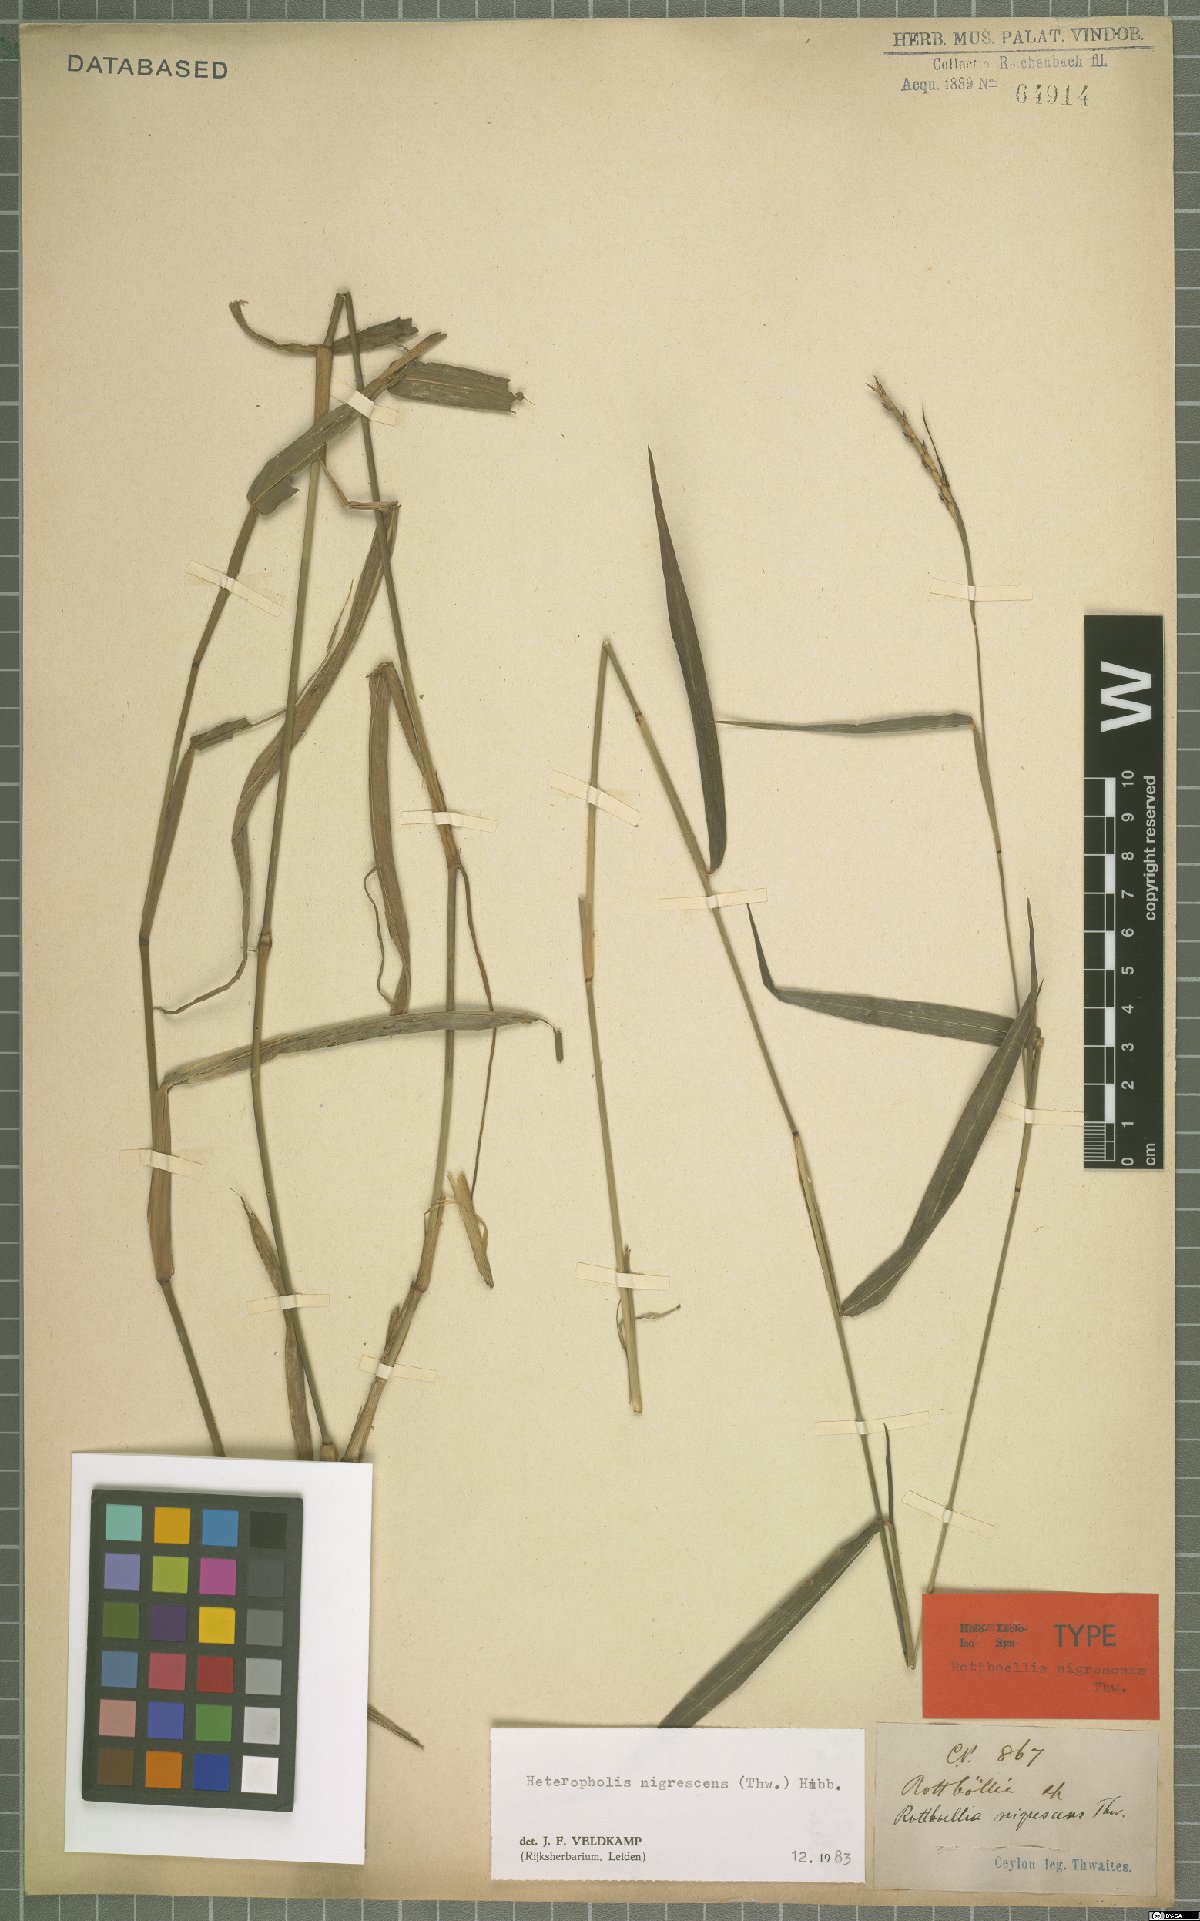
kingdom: Plantae
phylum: Tracheophyta
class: Liliopsida
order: Poales
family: Poaceae
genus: Heteropholis
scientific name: Heteropholis nigrescens
